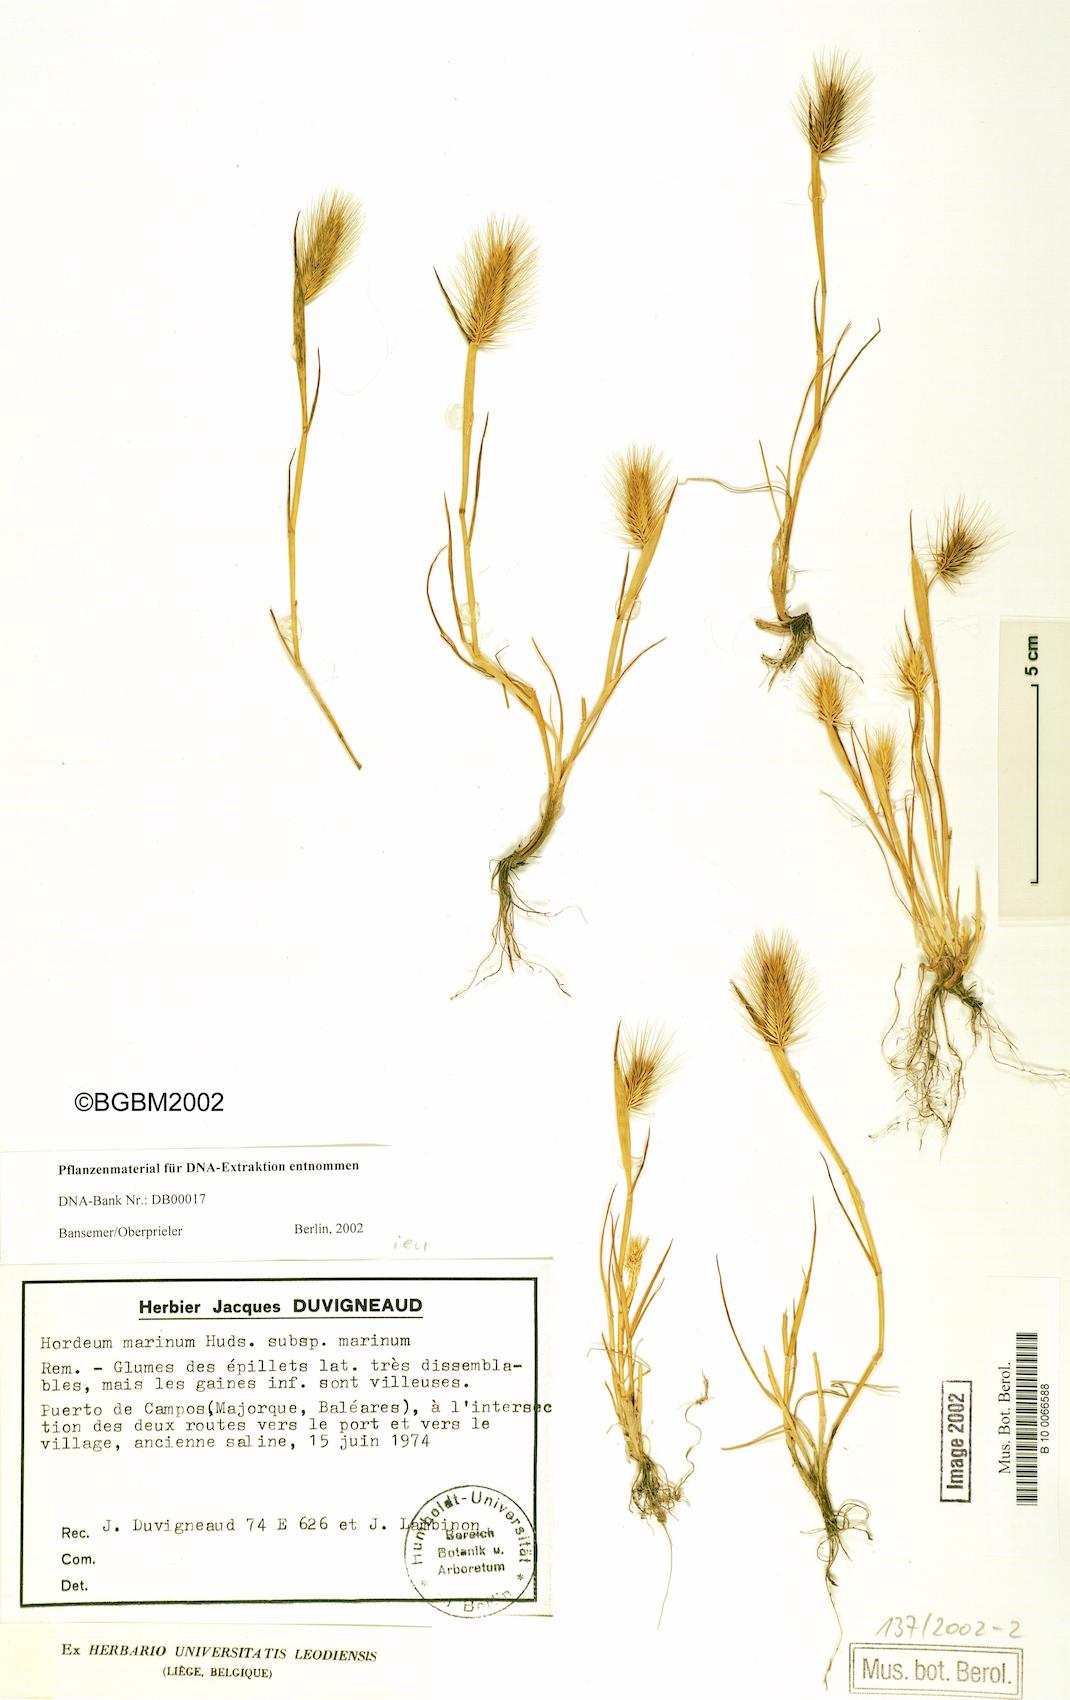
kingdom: Plantae
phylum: Tracheophyta
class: Liliopsida
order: Poales
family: Poaceae
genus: Hordeum
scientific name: Hordeum marinum
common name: Sea barley
